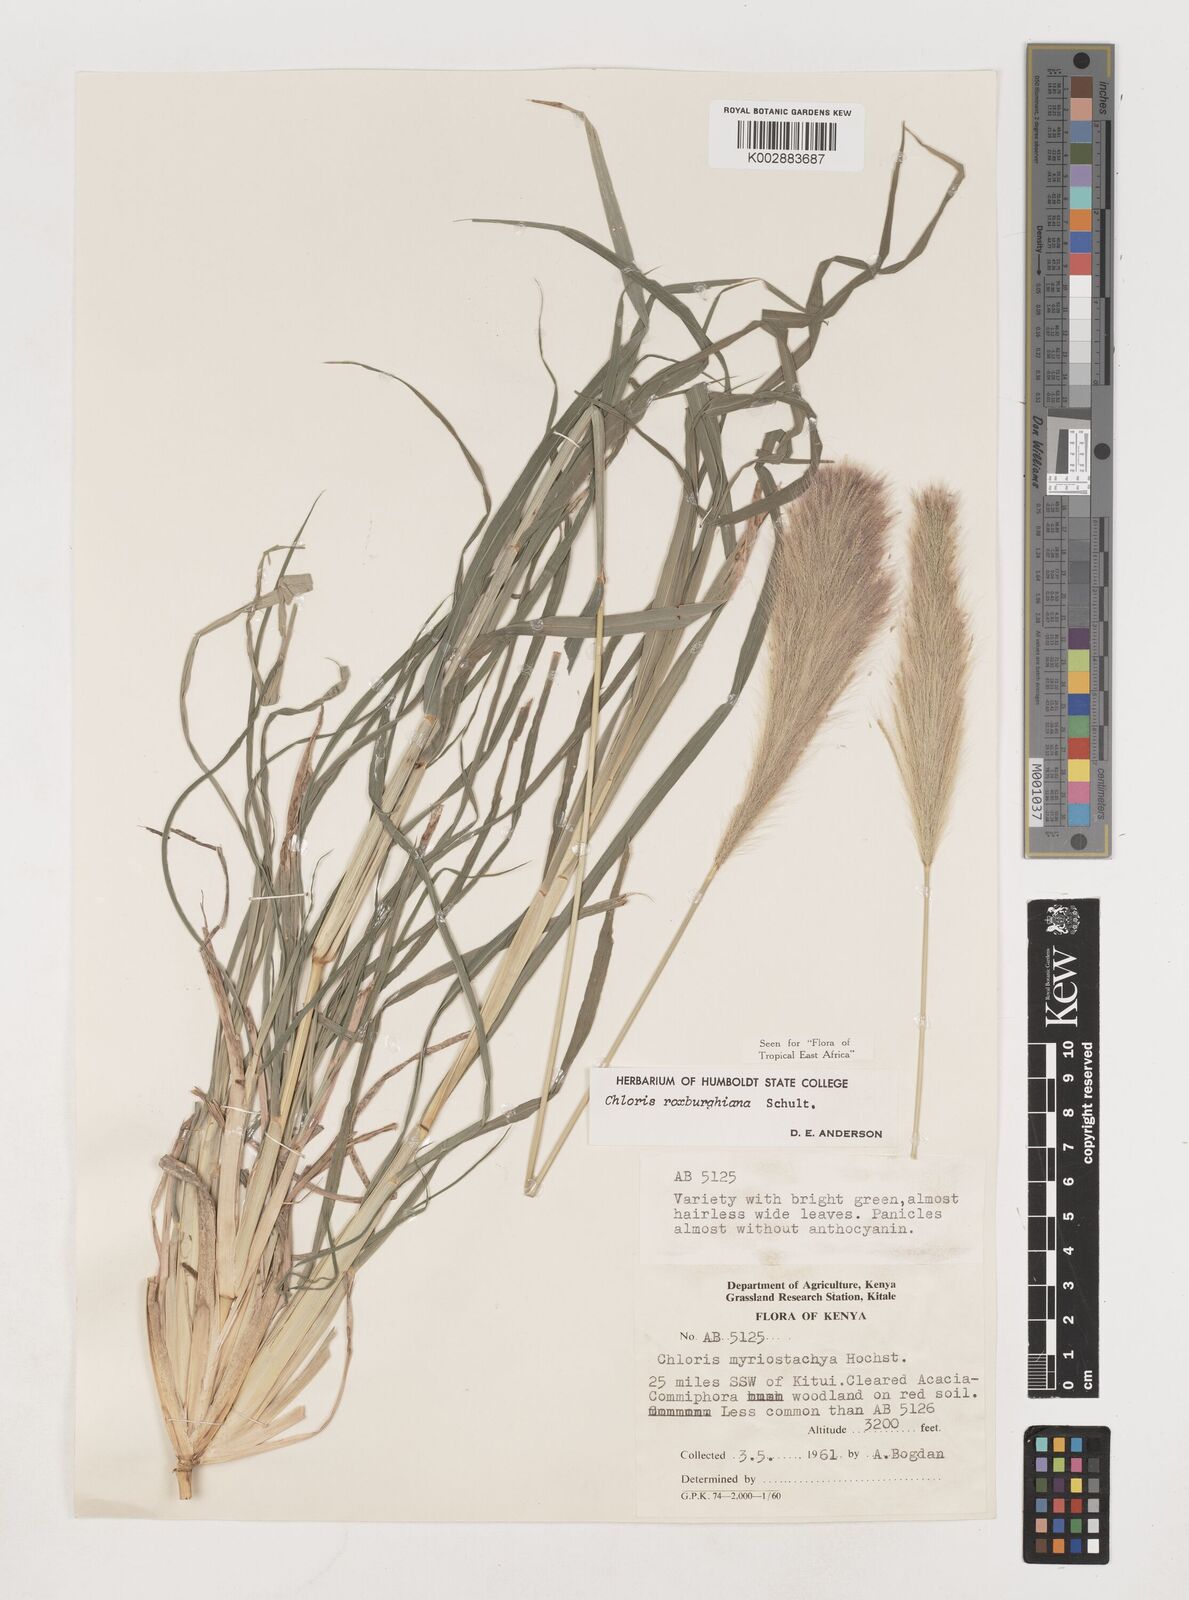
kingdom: Plantae
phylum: Tracheophyta
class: Liliopsida
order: Poales
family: Poaceae
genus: Tetrapogon
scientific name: Tetrapogon roxburghiana
